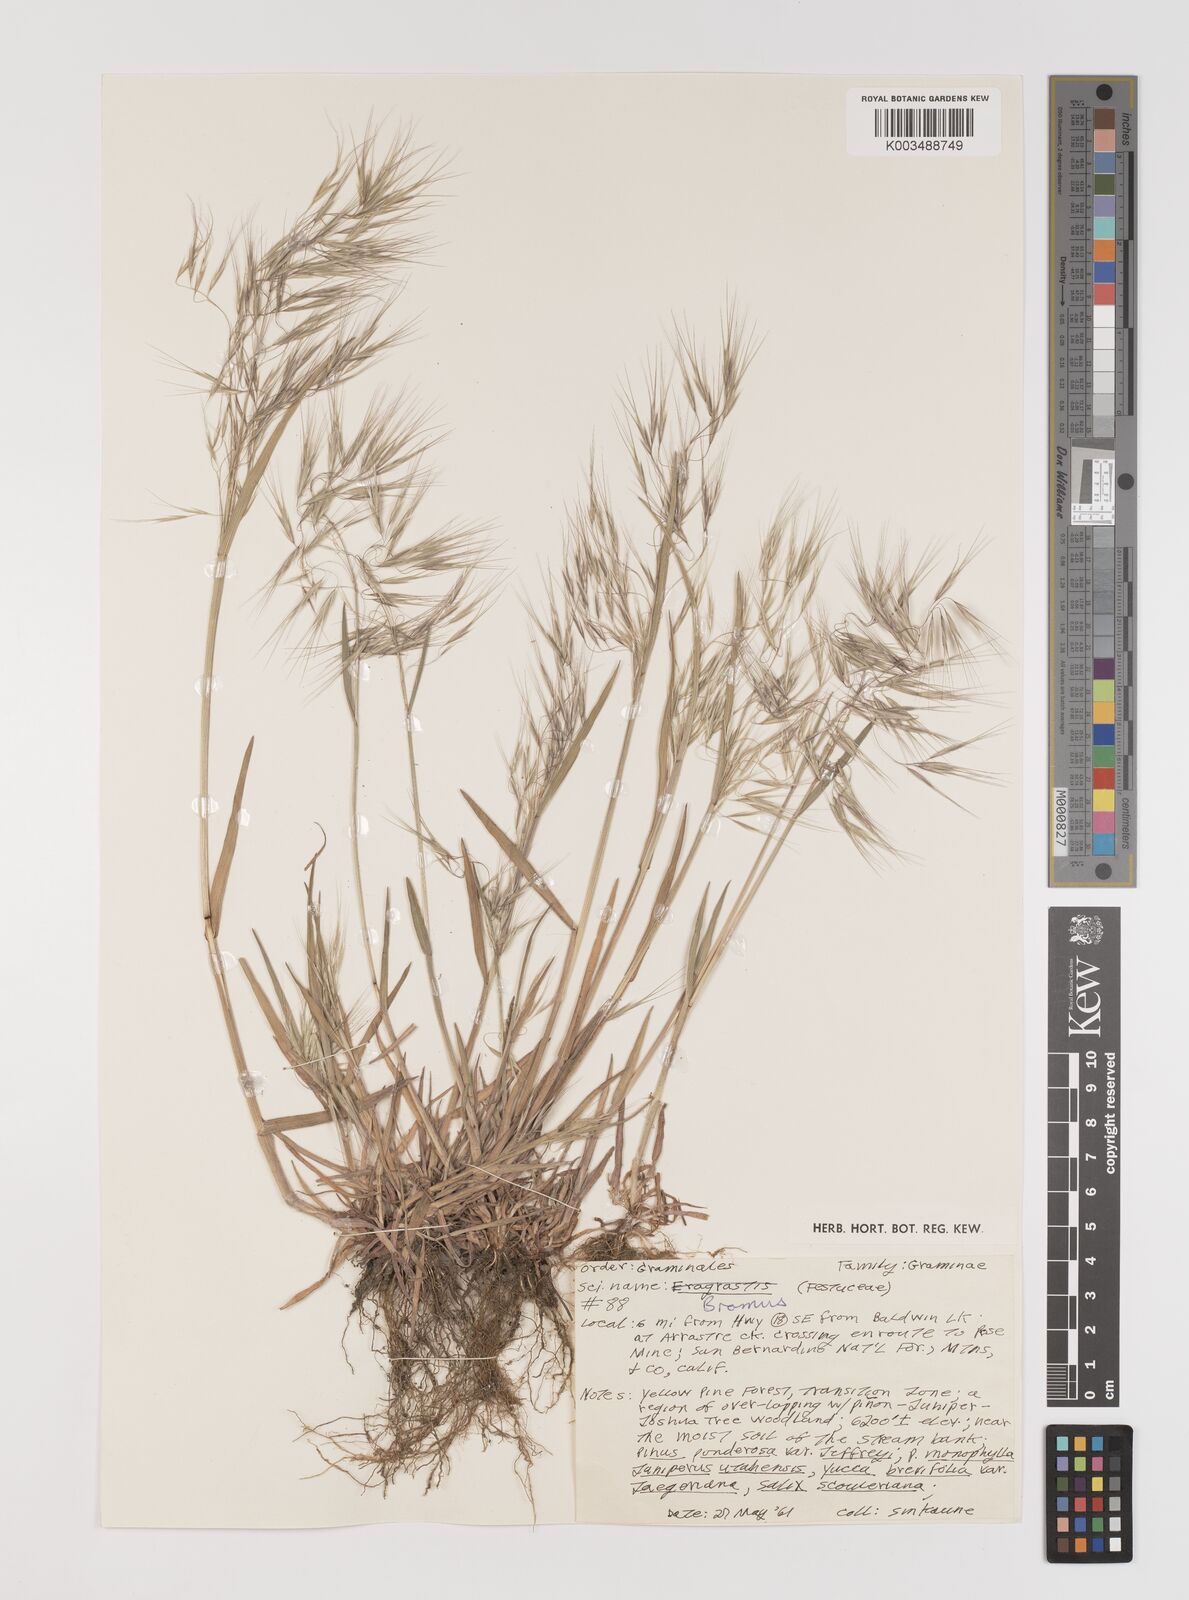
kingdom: Plantae
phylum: Tracheophyta
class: Liliopsida
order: Poales
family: Poaceae
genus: Bromus
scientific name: Bromus
